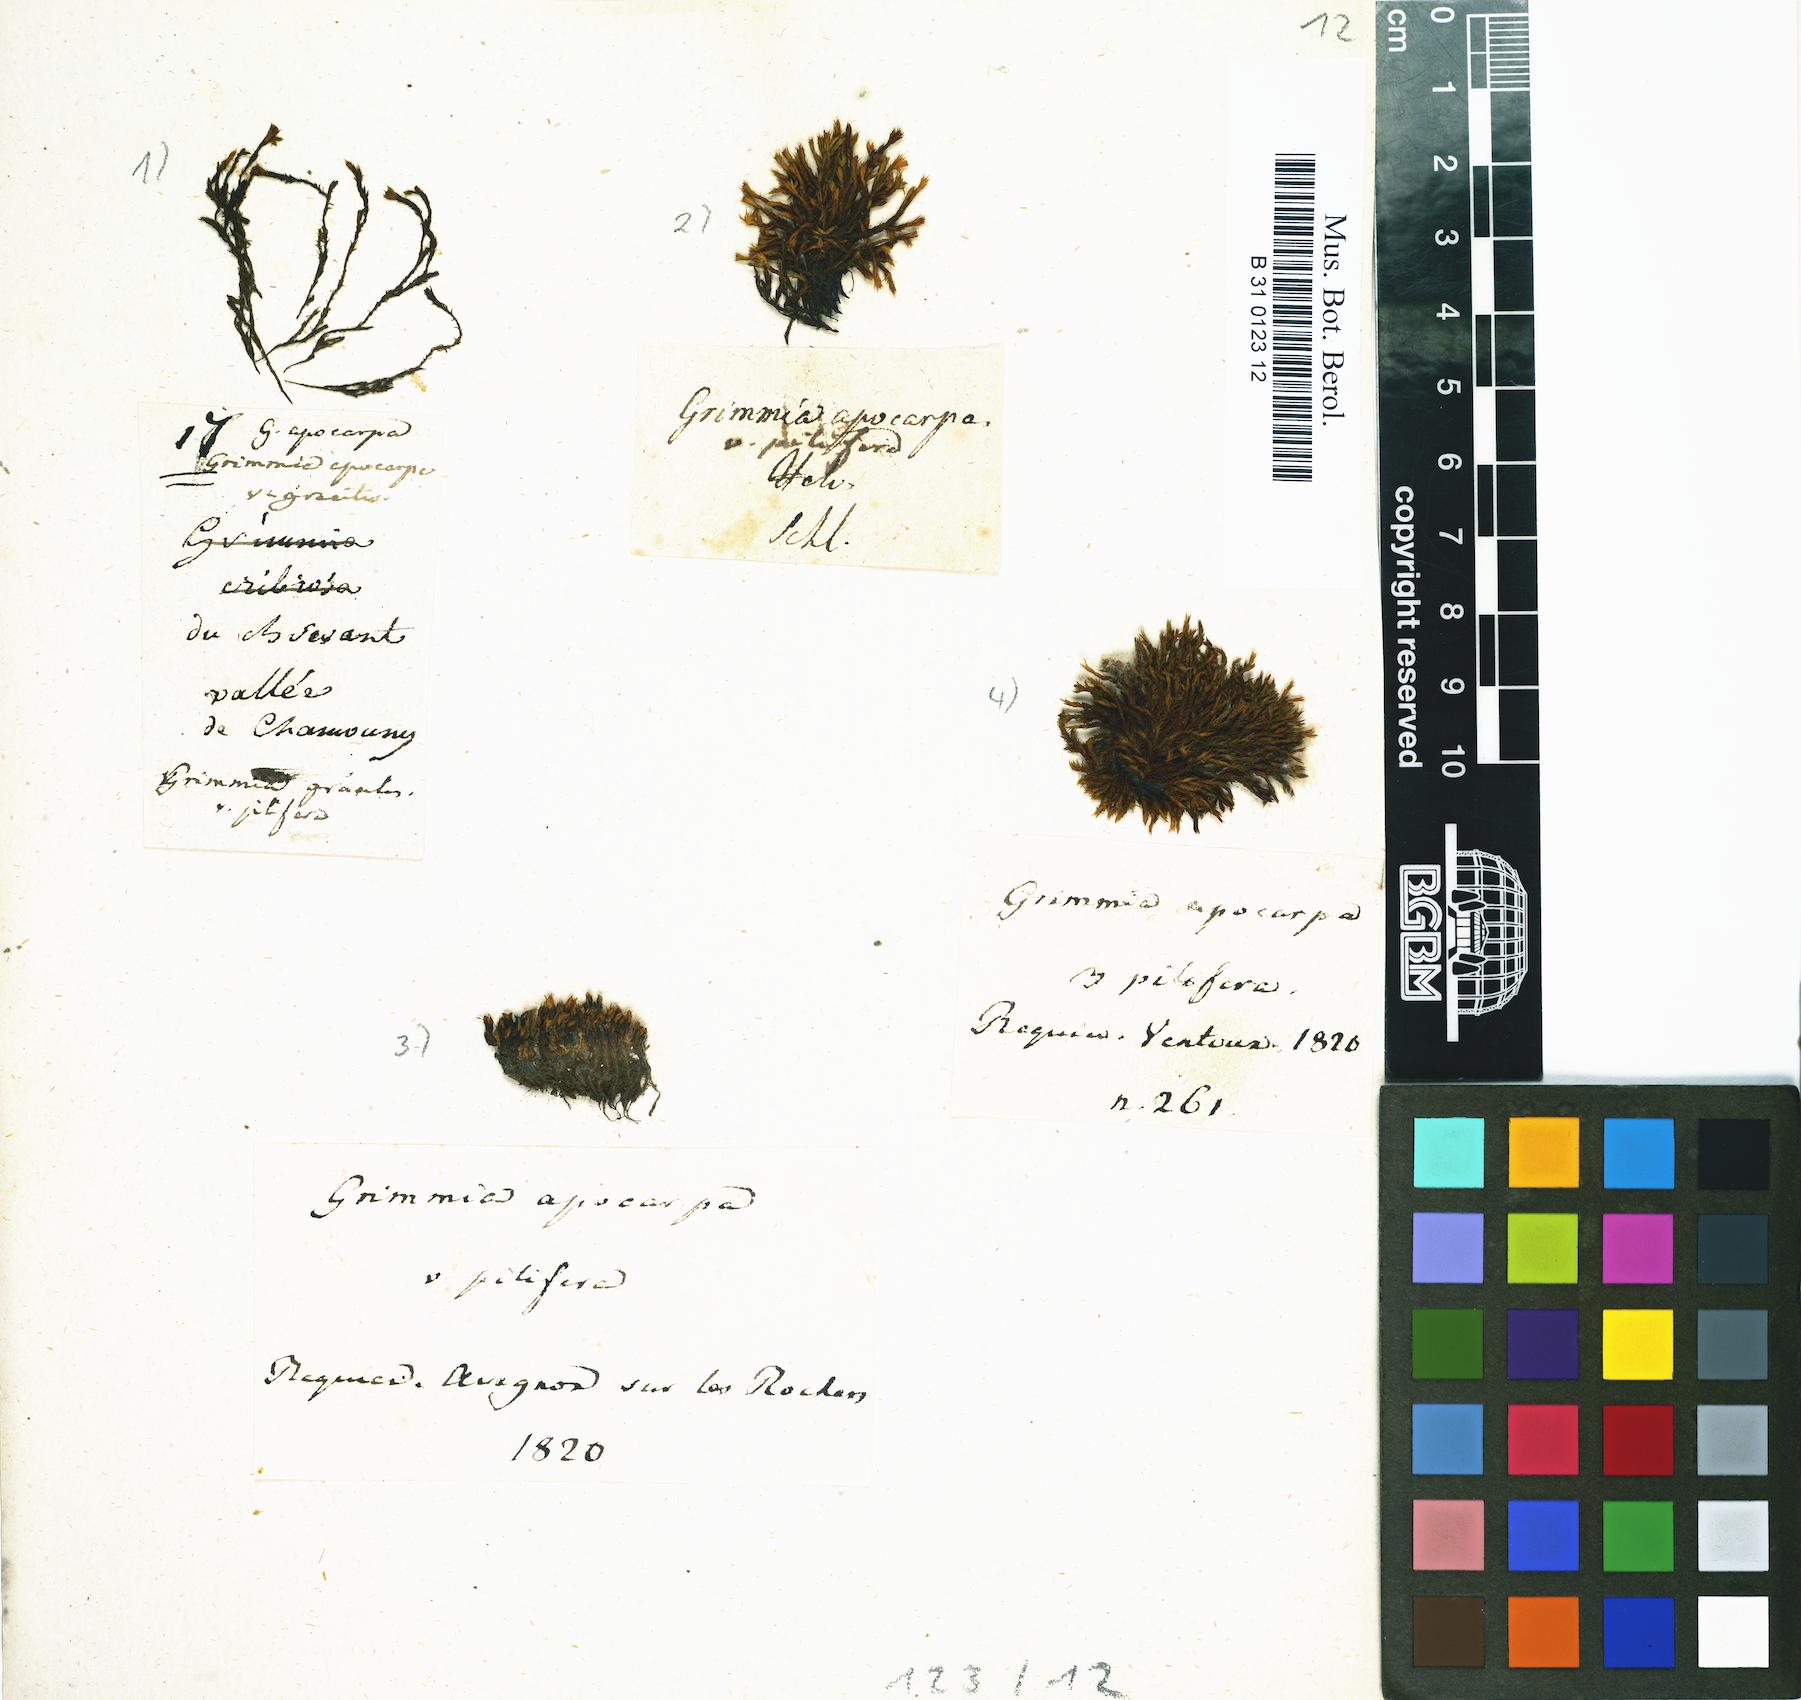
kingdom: Plantae
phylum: Bryophyta
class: Bryopsida
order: Grimmiales
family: Grimmiaceae
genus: Grimmia
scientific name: Grimmia pilifera
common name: Hair grimmia
